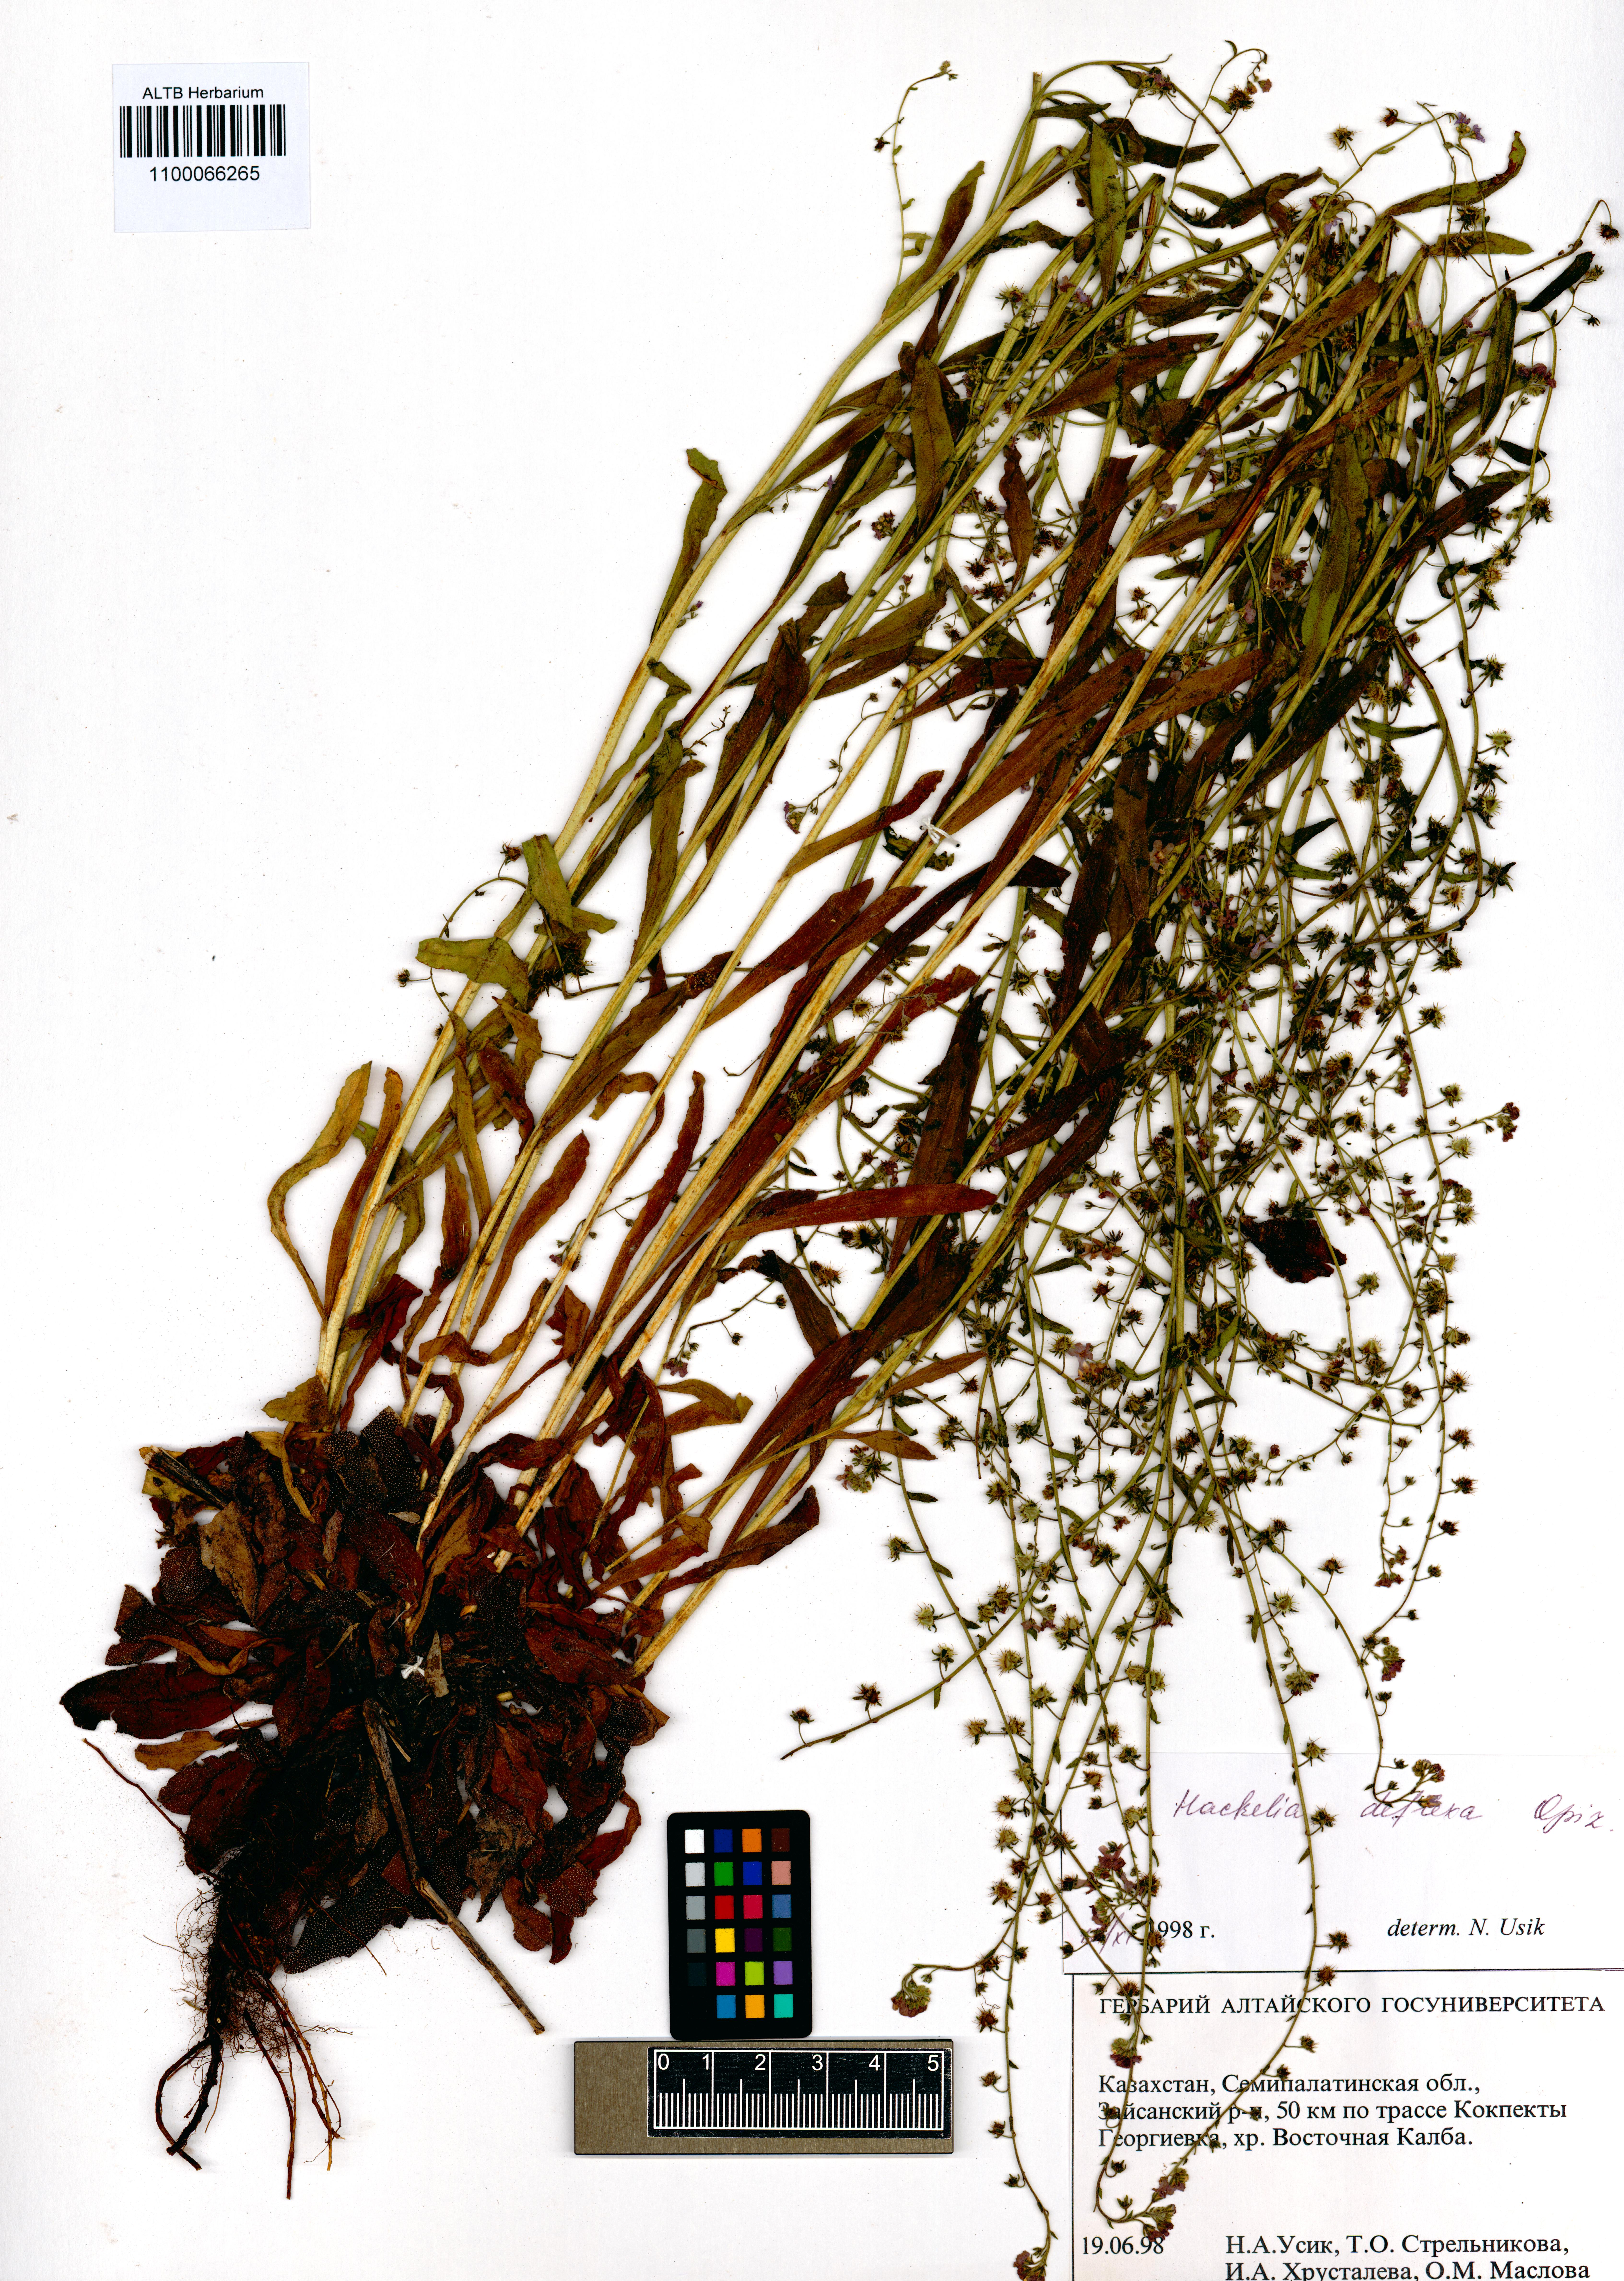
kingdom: Plantae
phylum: Tracheophyta
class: Magnoliopsida
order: Boraginales
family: Boraginaceae
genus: Hackelia
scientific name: Hackelia deflexa
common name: Nodding stickseed
